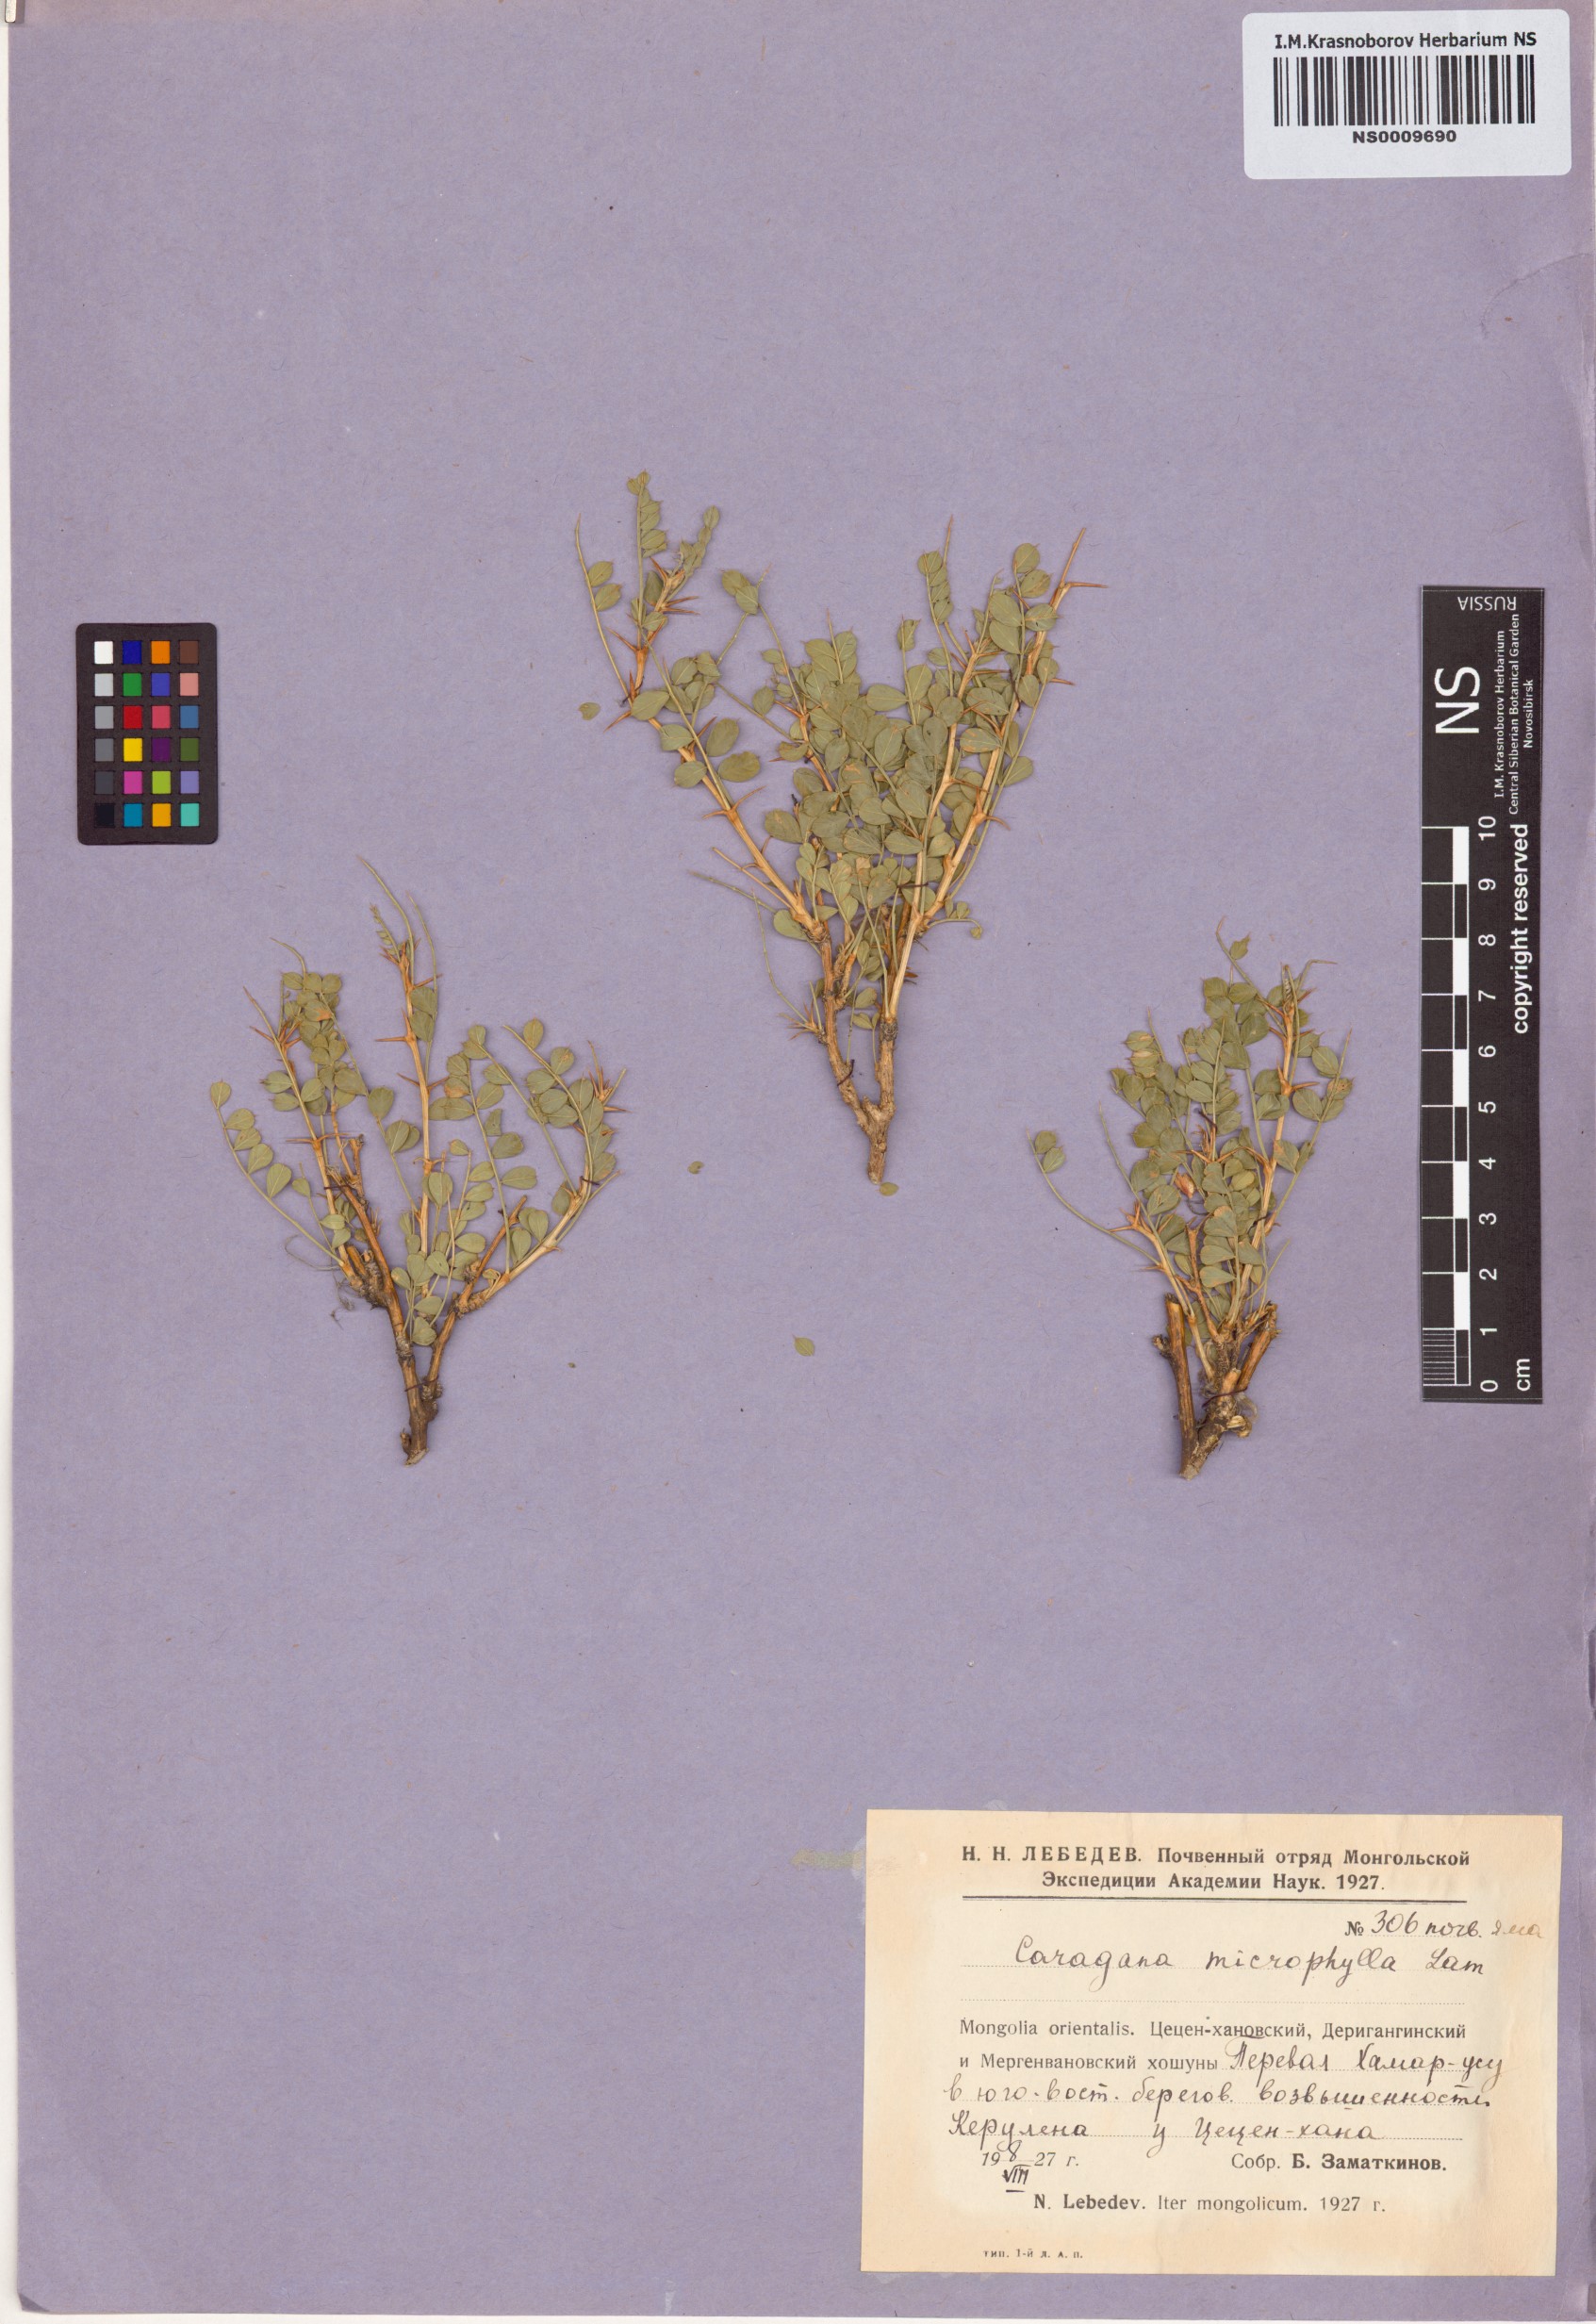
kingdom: Plantae
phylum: Tracheophyta
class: Magnoliopsida
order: Fabales
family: Fabaceae
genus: Caragana
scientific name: Caragana microphylla
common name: Littleleaf peashrub
